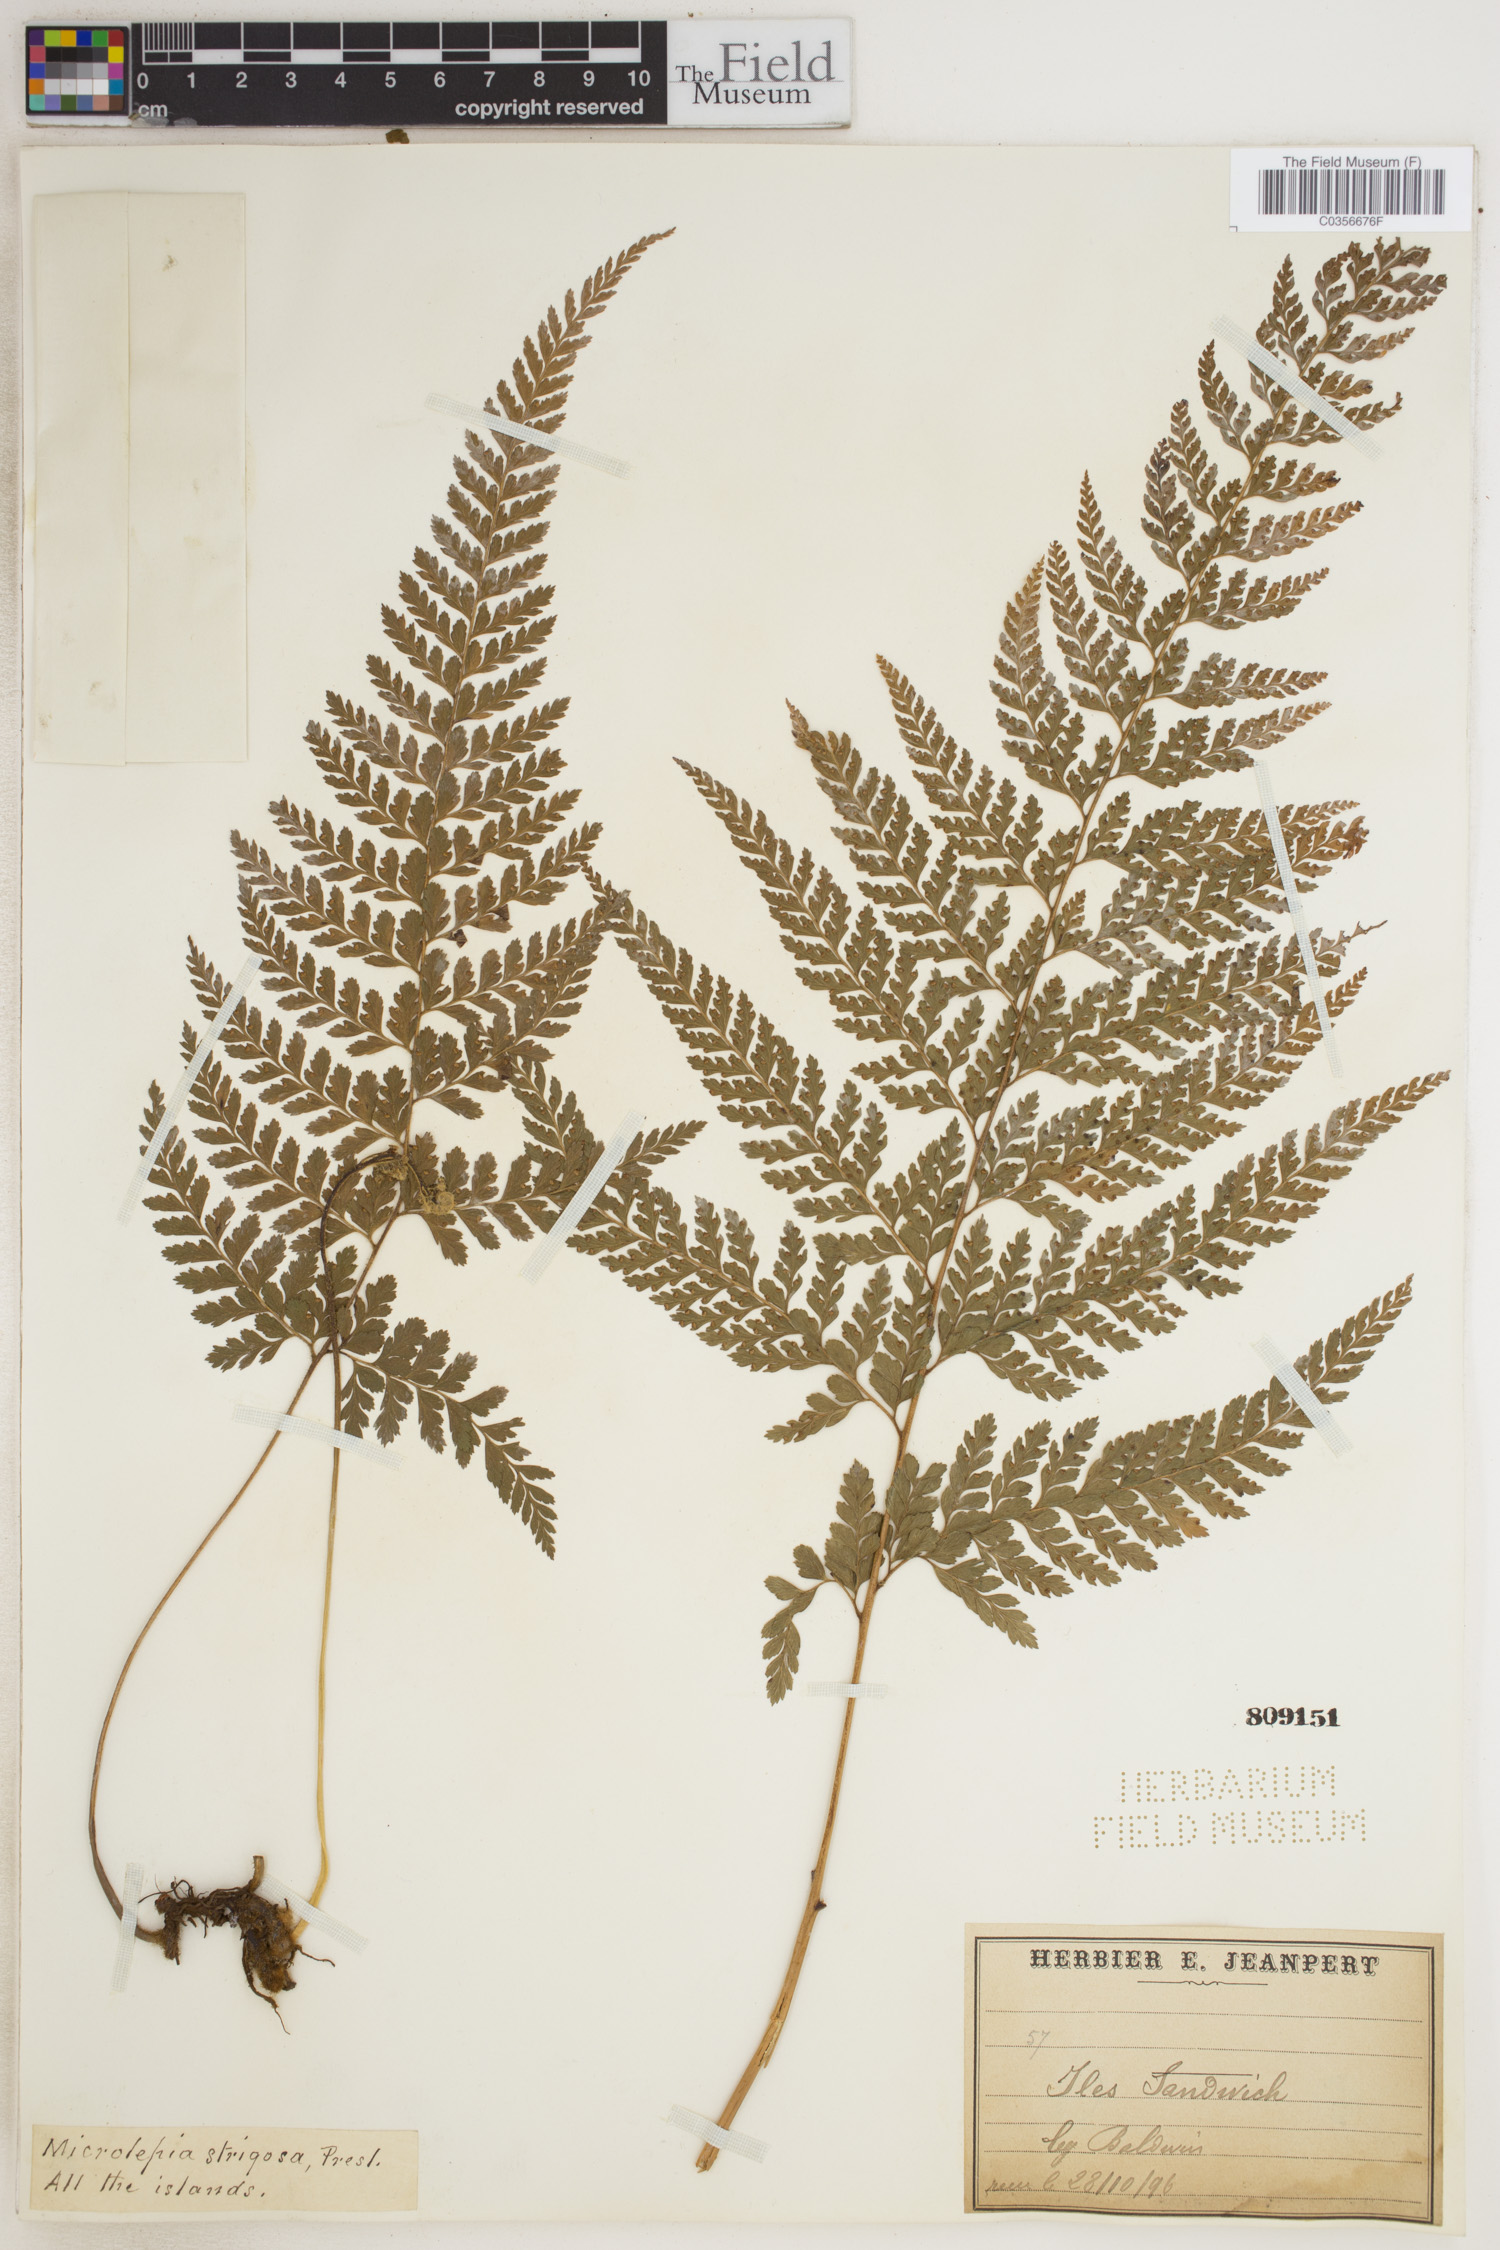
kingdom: Plantae
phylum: Tracheophyta
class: Polypodiopsida
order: Polypodiales
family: Dennstaedtiaceae
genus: Microlepia
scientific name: Microlepia strigosa
